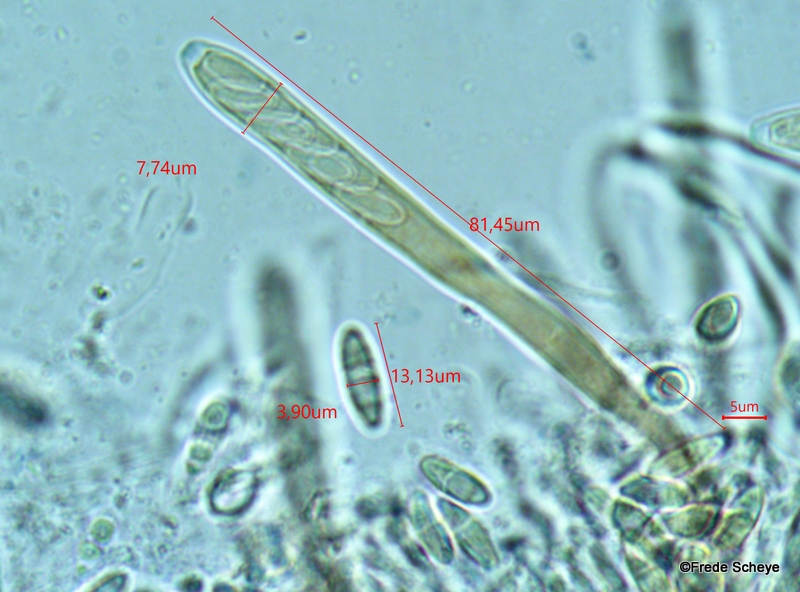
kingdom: Fungi
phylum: Ascomycota
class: Leotiomycetes
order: Helotiales
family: Pezizellaceae
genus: Calycina
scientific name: Calycina citrina
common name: almindelig gulskive
